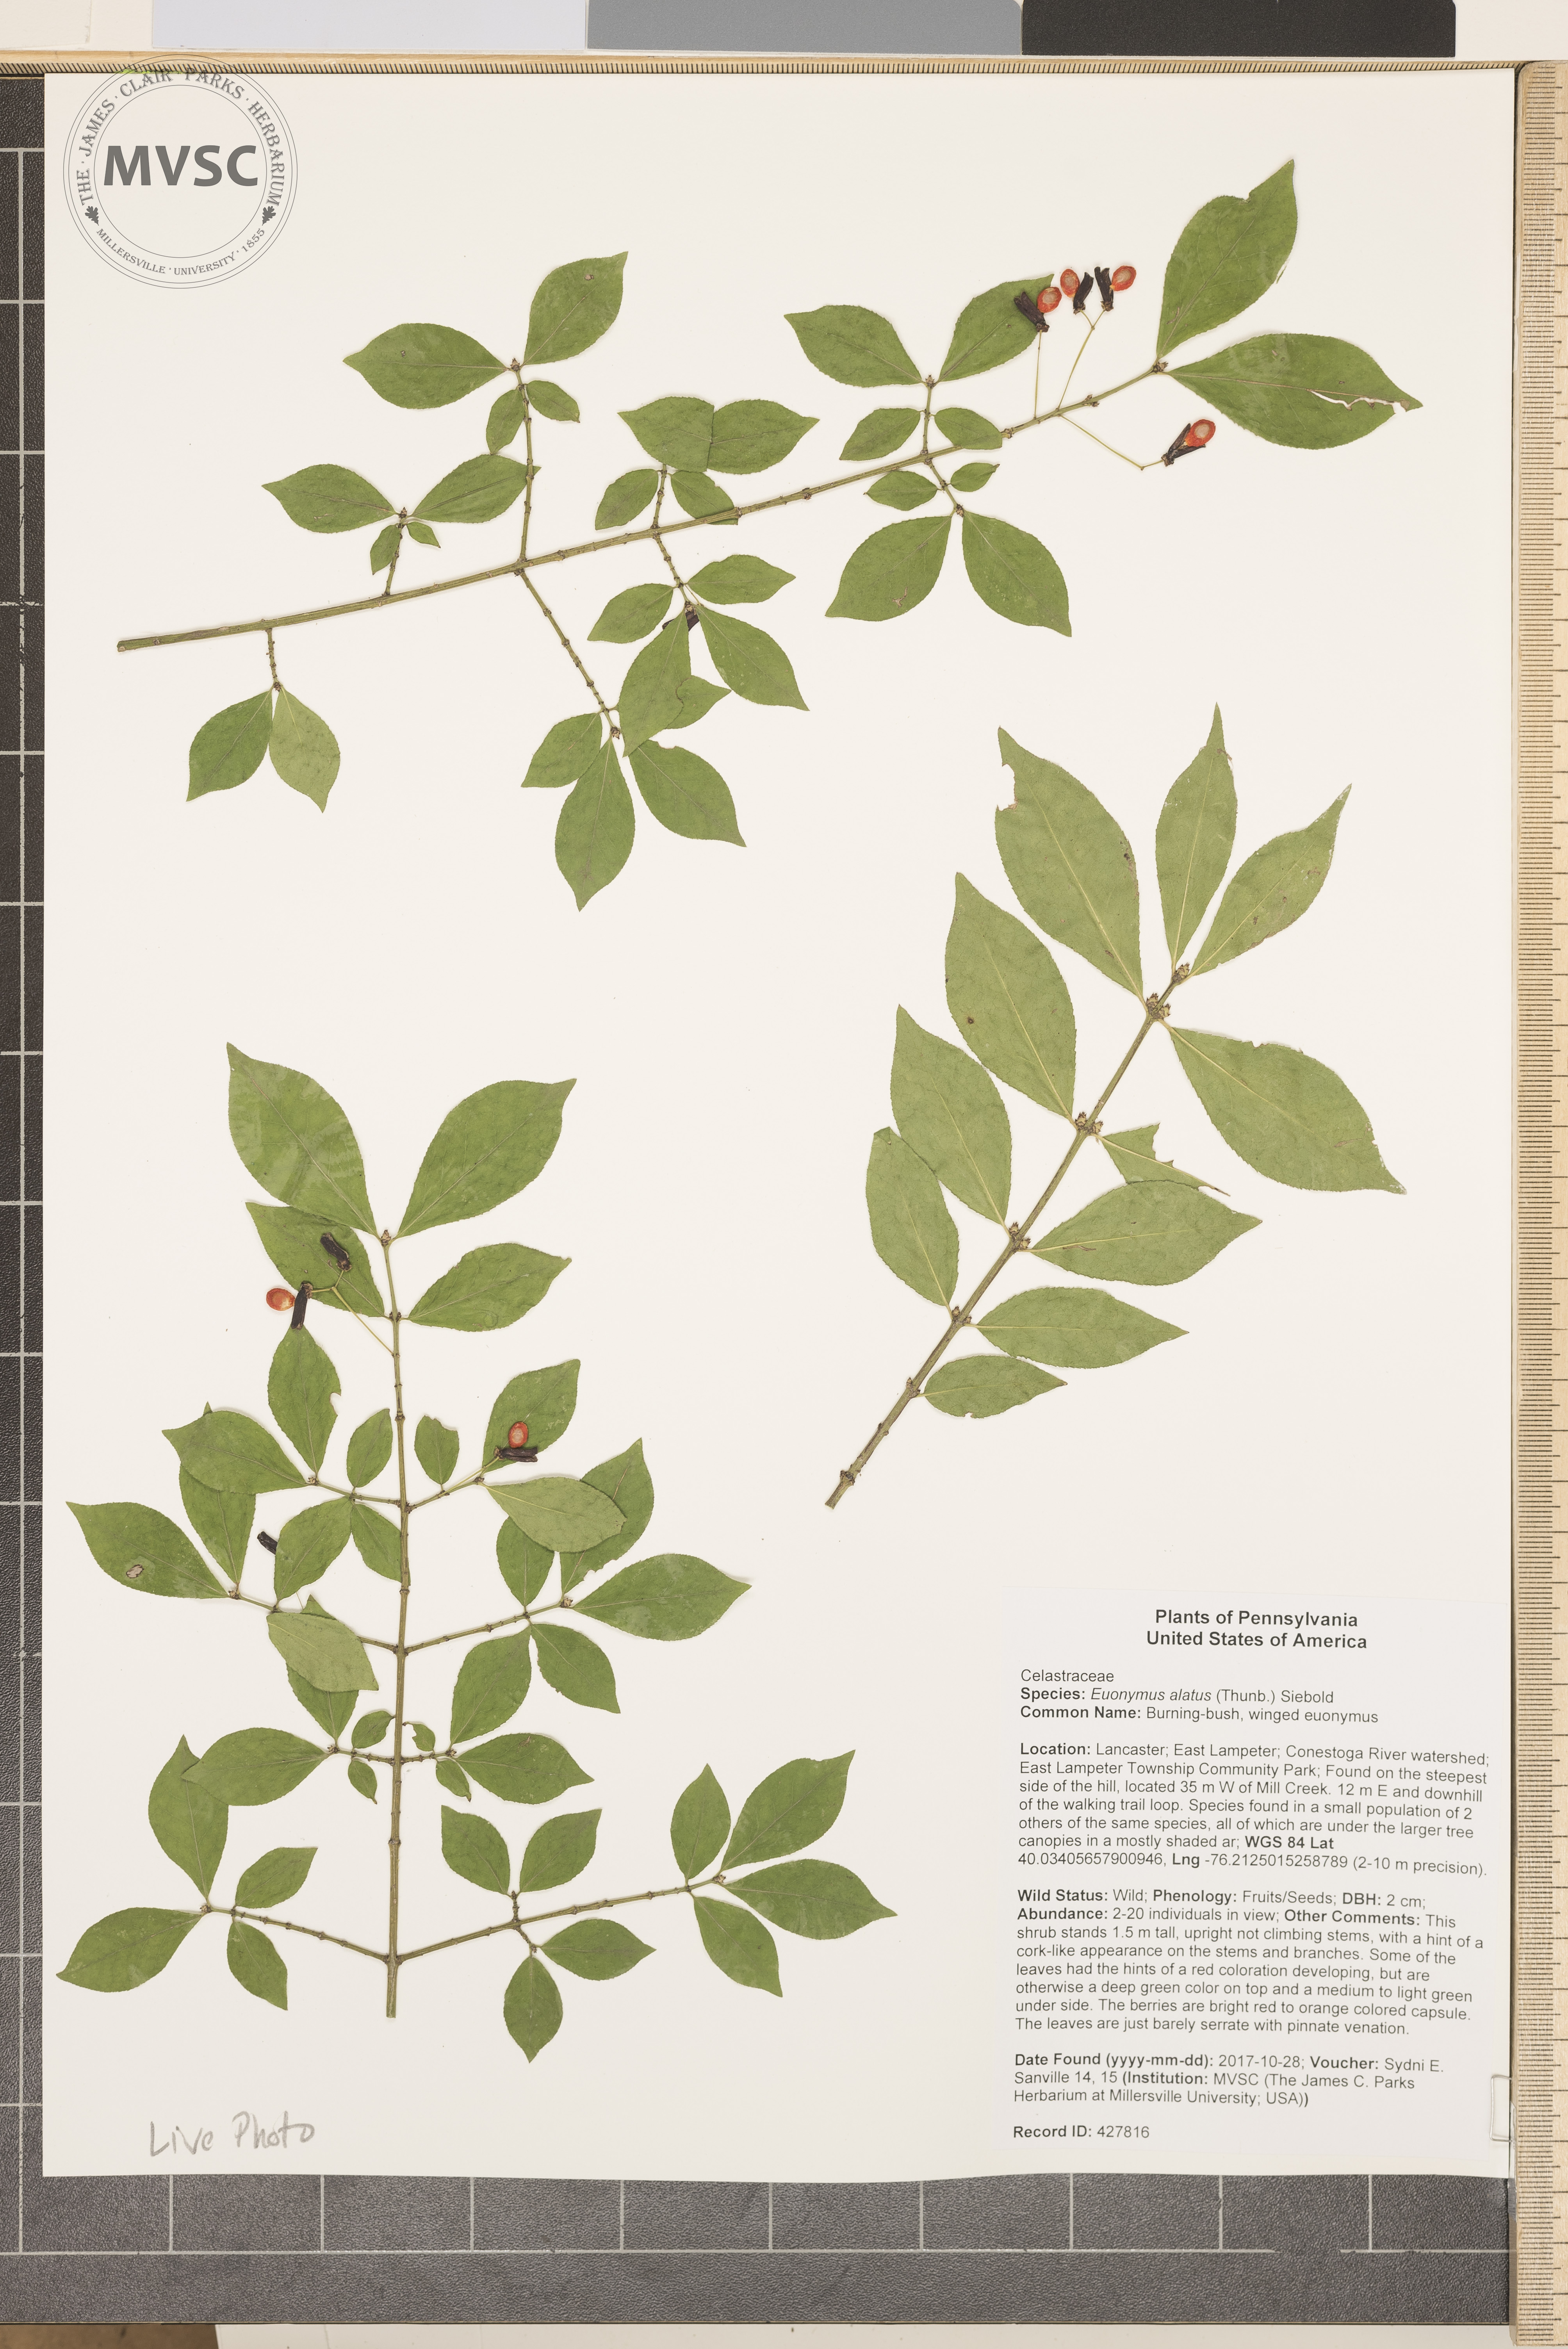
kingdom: Plantae
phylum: Tracheophyta
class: Magnoliopsida
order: Celastrales
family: Celastraceae
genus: Euonymus
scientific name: Euonymus alatus
